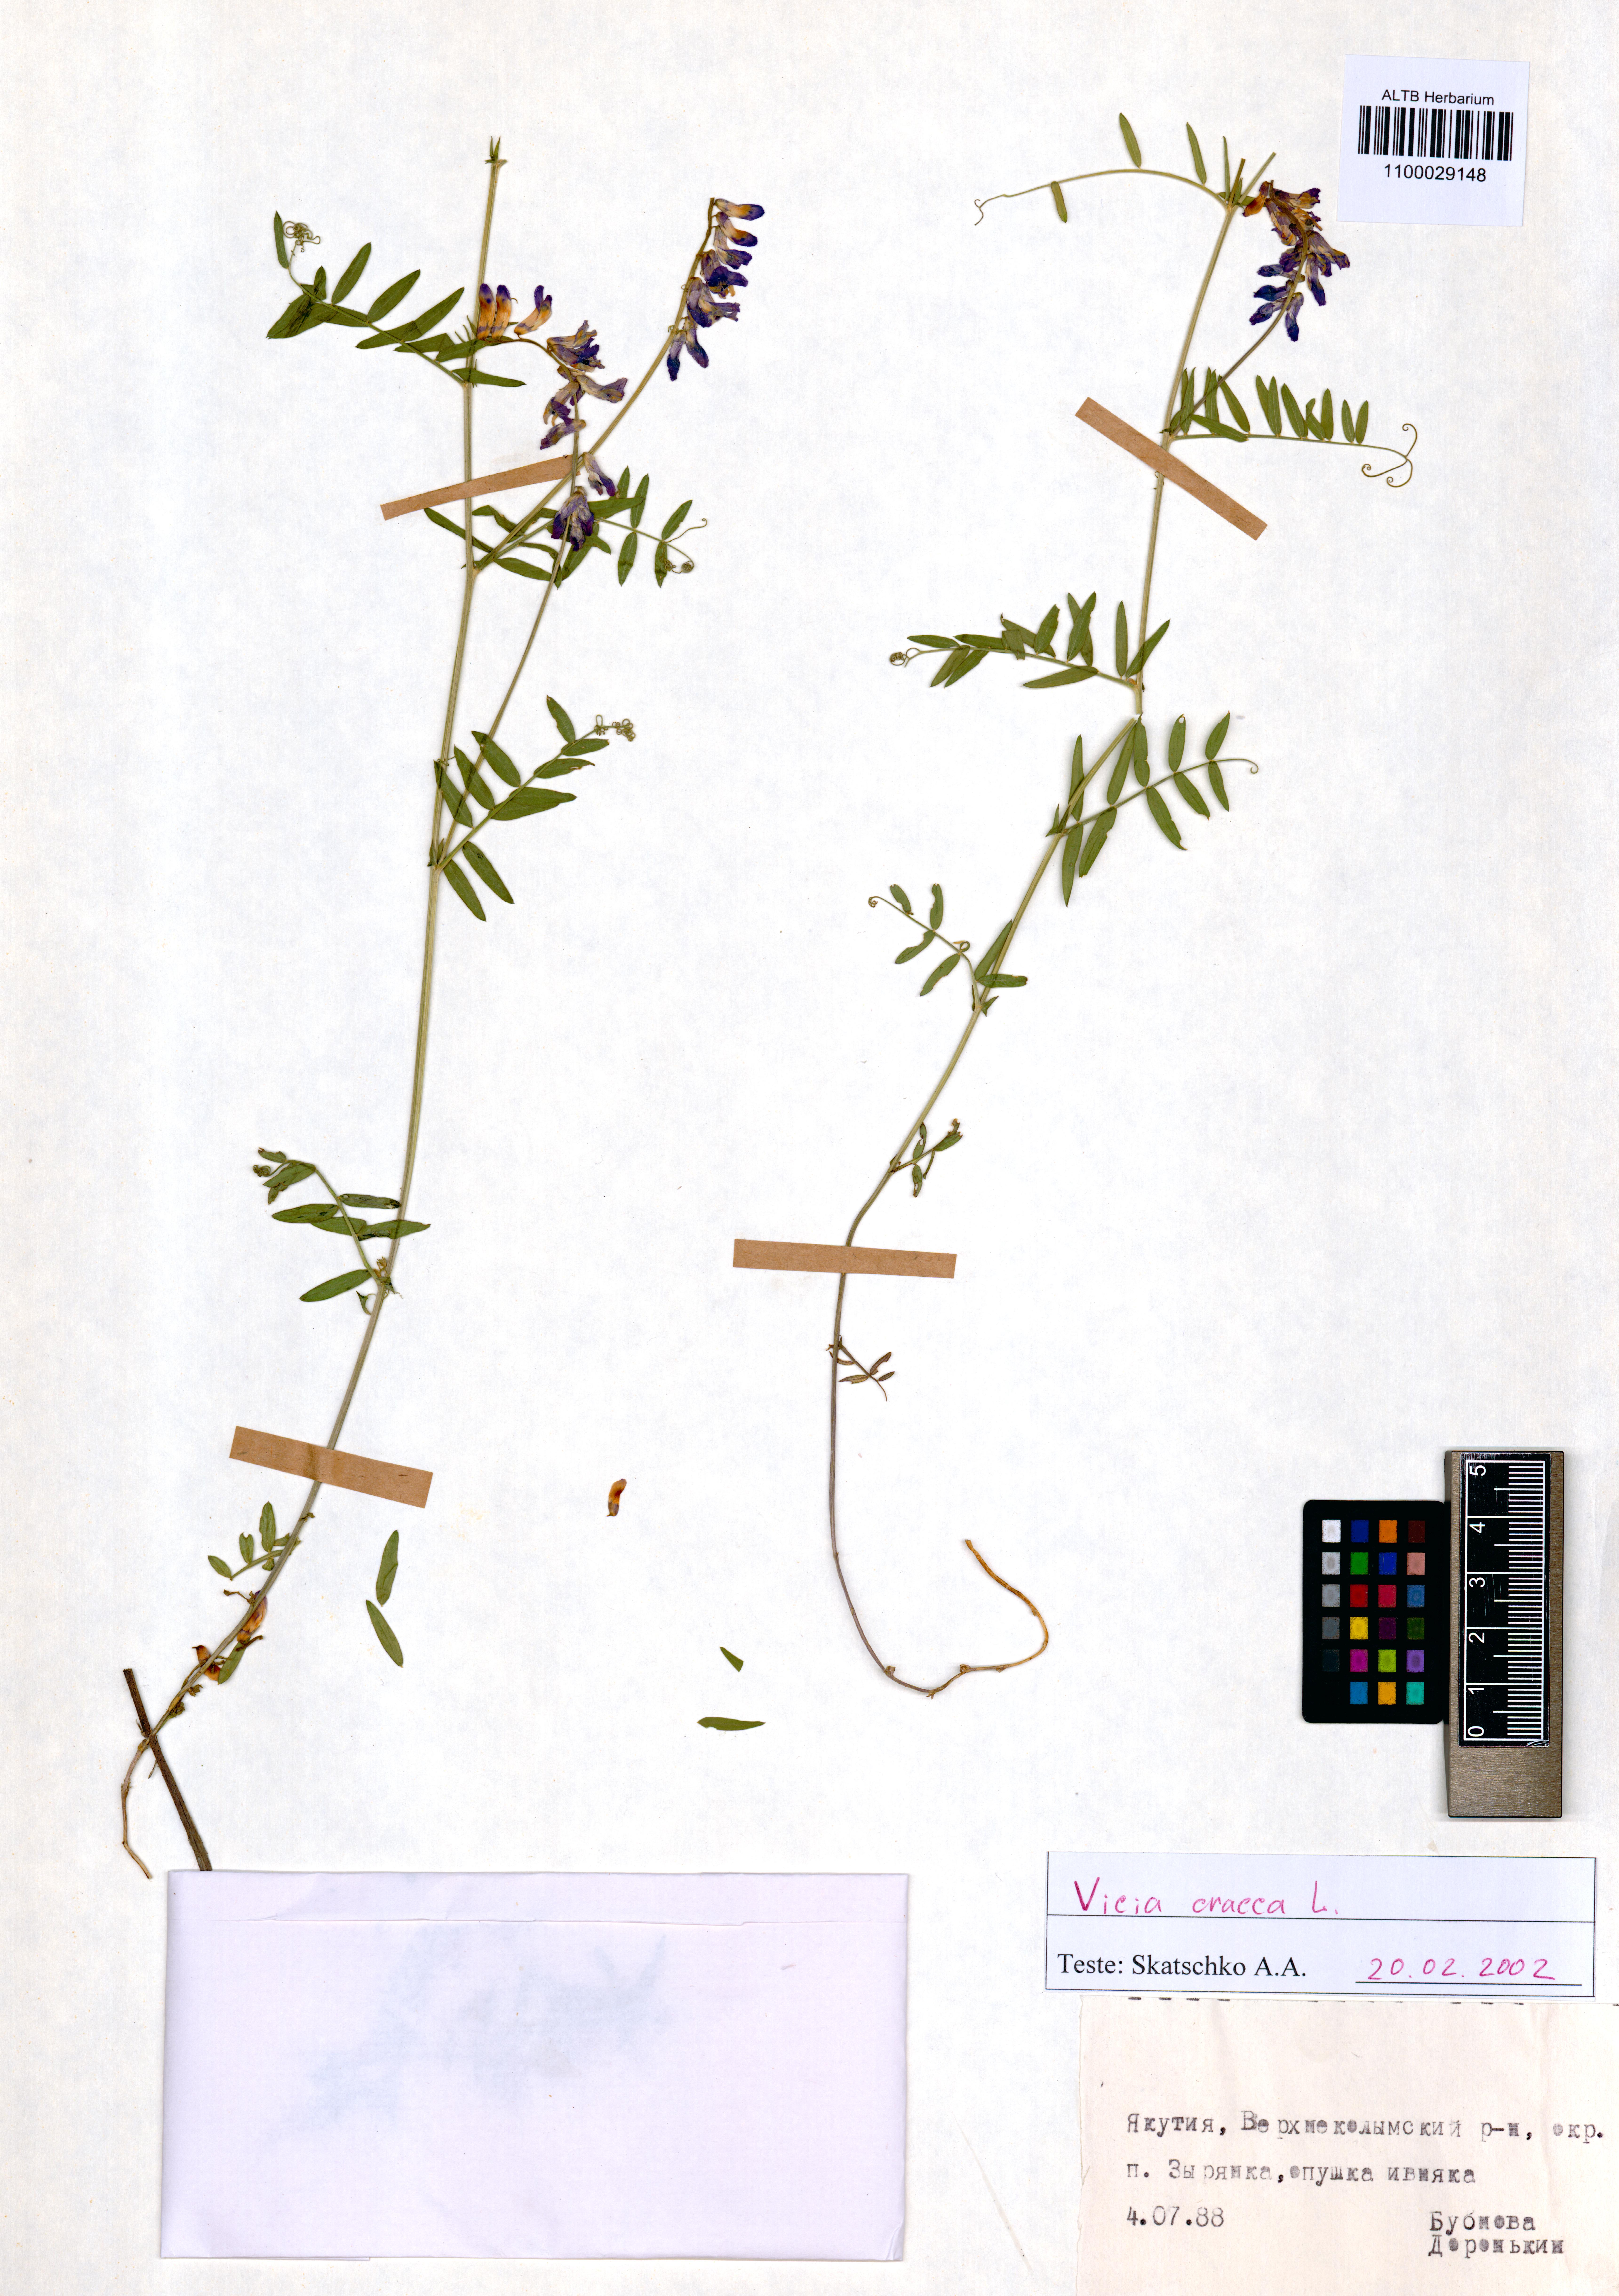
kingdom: Plantae
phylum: Tracheophyta
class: Magnoliopsida
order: Fabales
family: Fabaceae
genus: Vicia
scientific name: Vicia cracca
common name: Bird vetch
